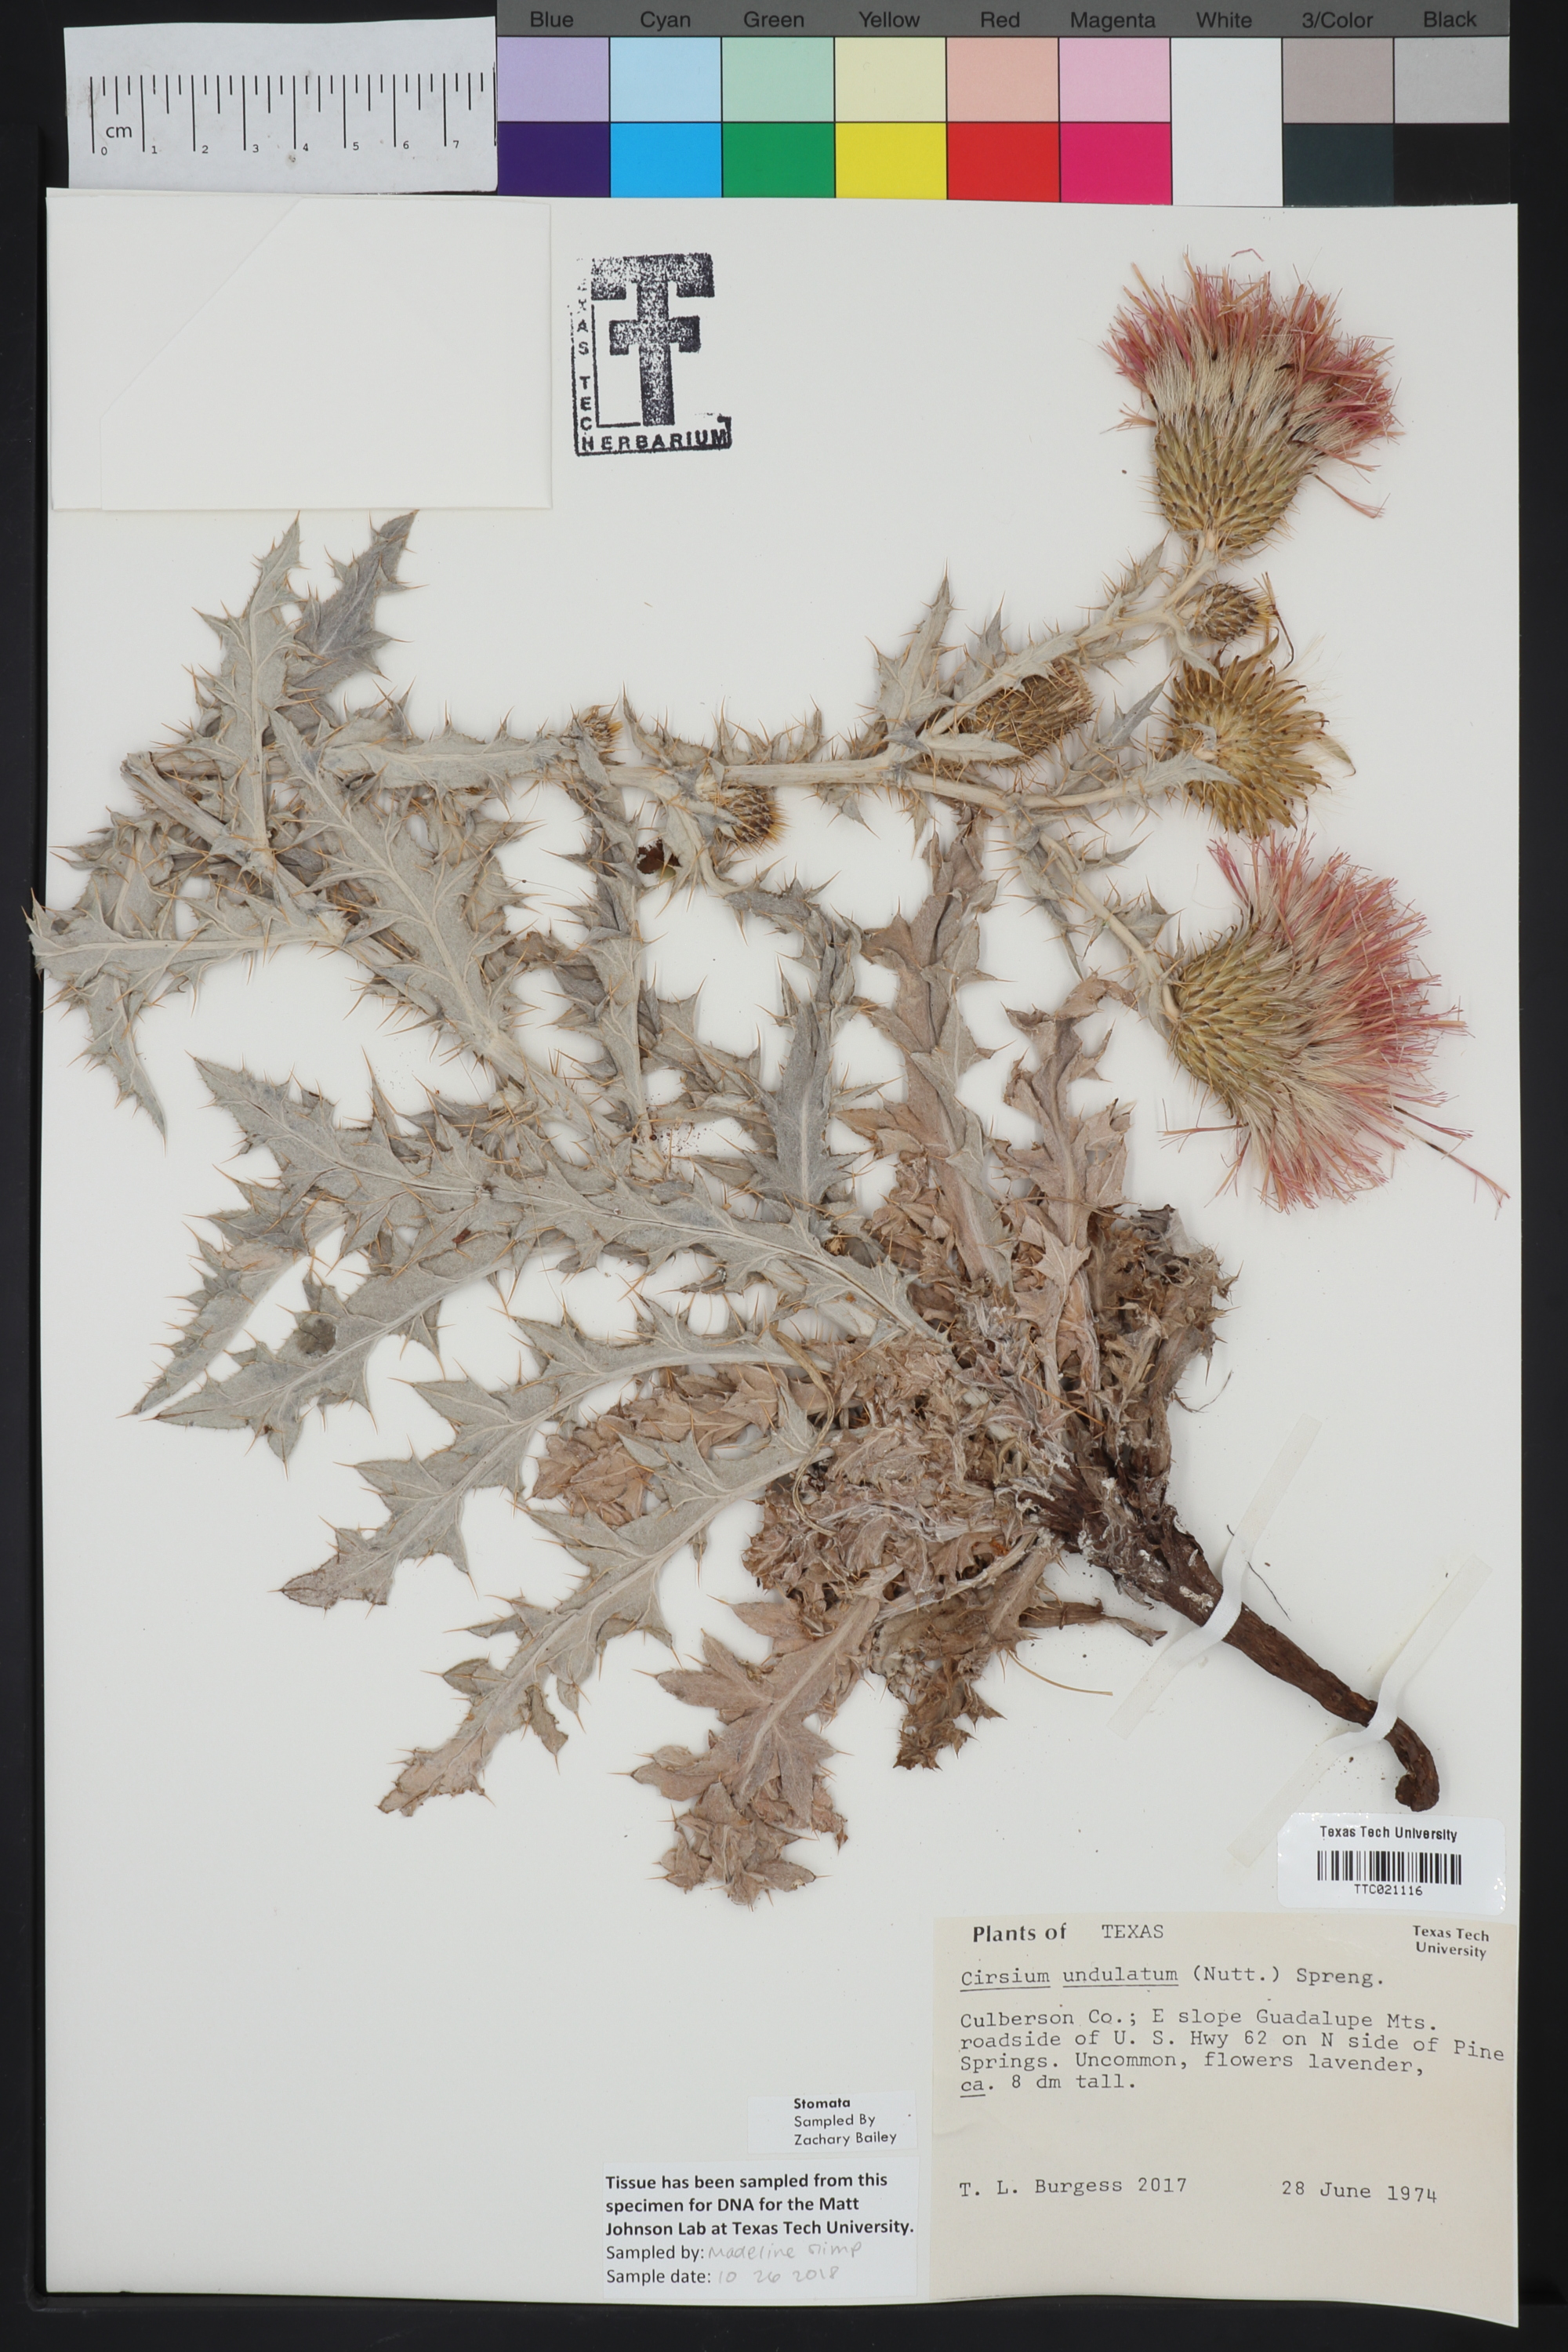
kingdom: Plantae
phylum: Tracheophyta
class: Magnoliopsida
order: Asterales
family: Asteraceae
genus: Cirsium
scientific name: Cirsium undulatum
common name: Pasture thistle
